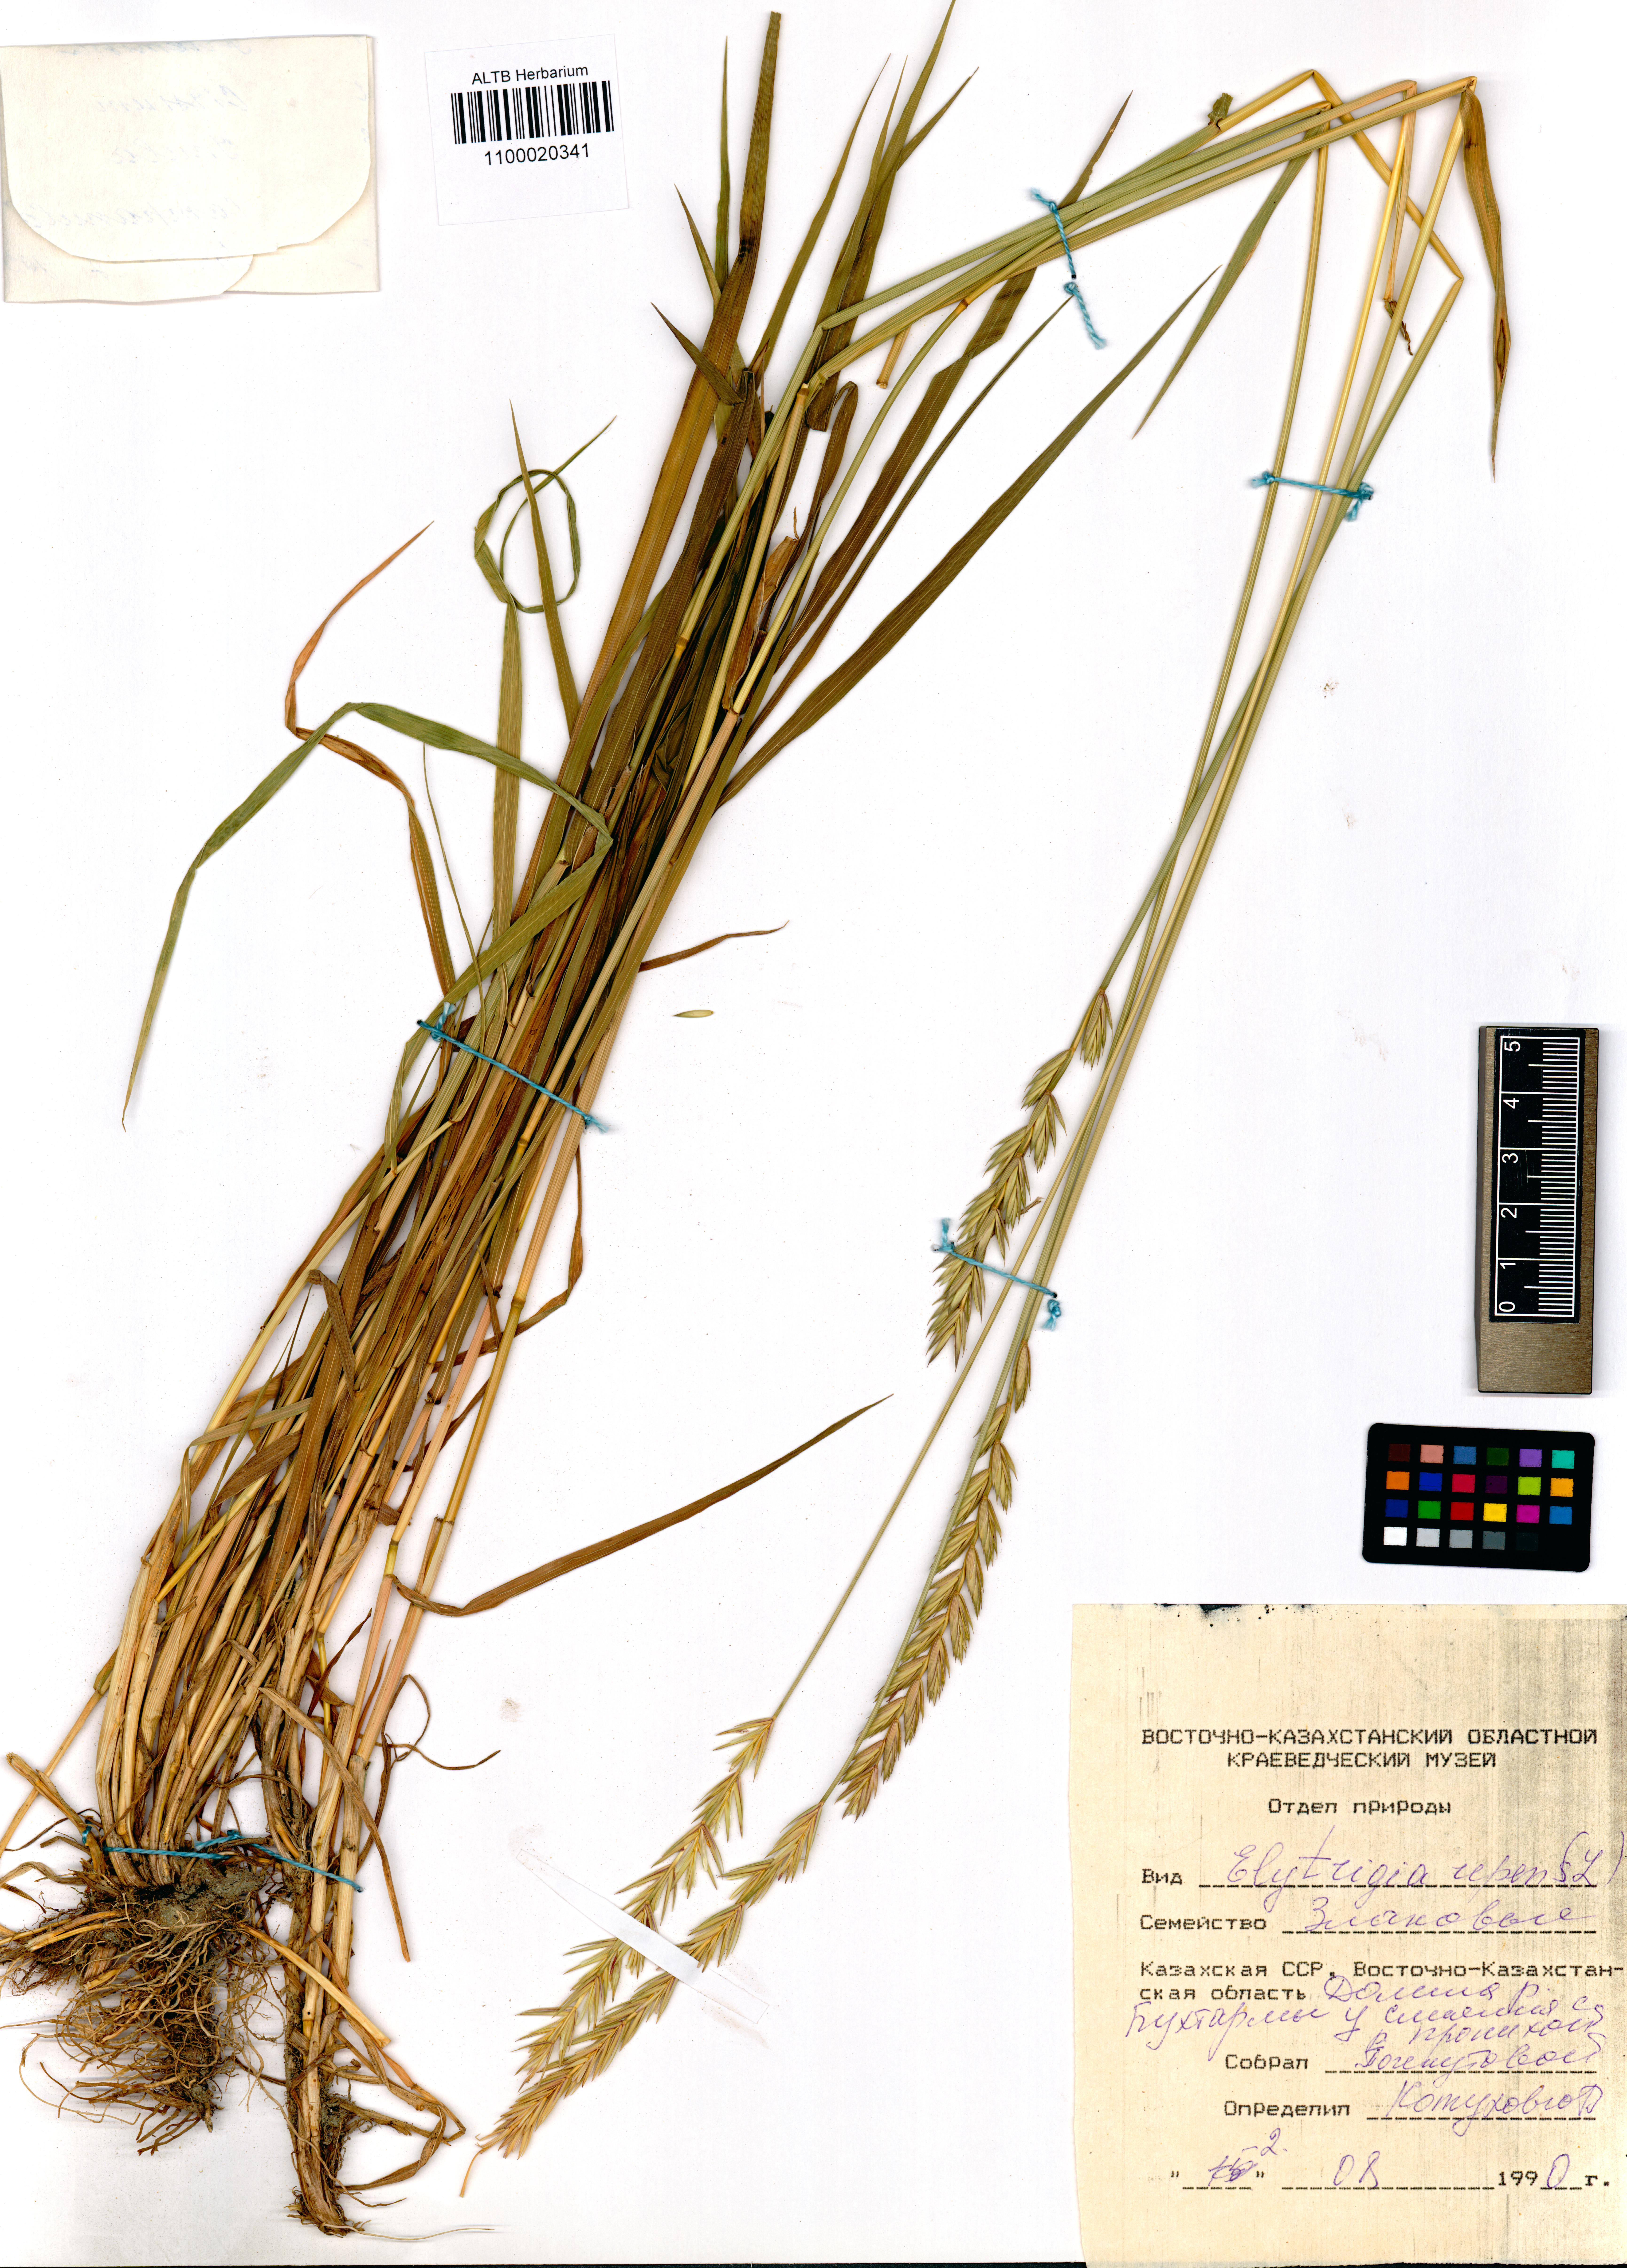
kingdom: Plantae
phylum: Tracheophyta
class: Liliopsida
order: Poales
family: Poaceae
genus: Elymus
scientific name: Elymus repens
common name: Quackgrass
